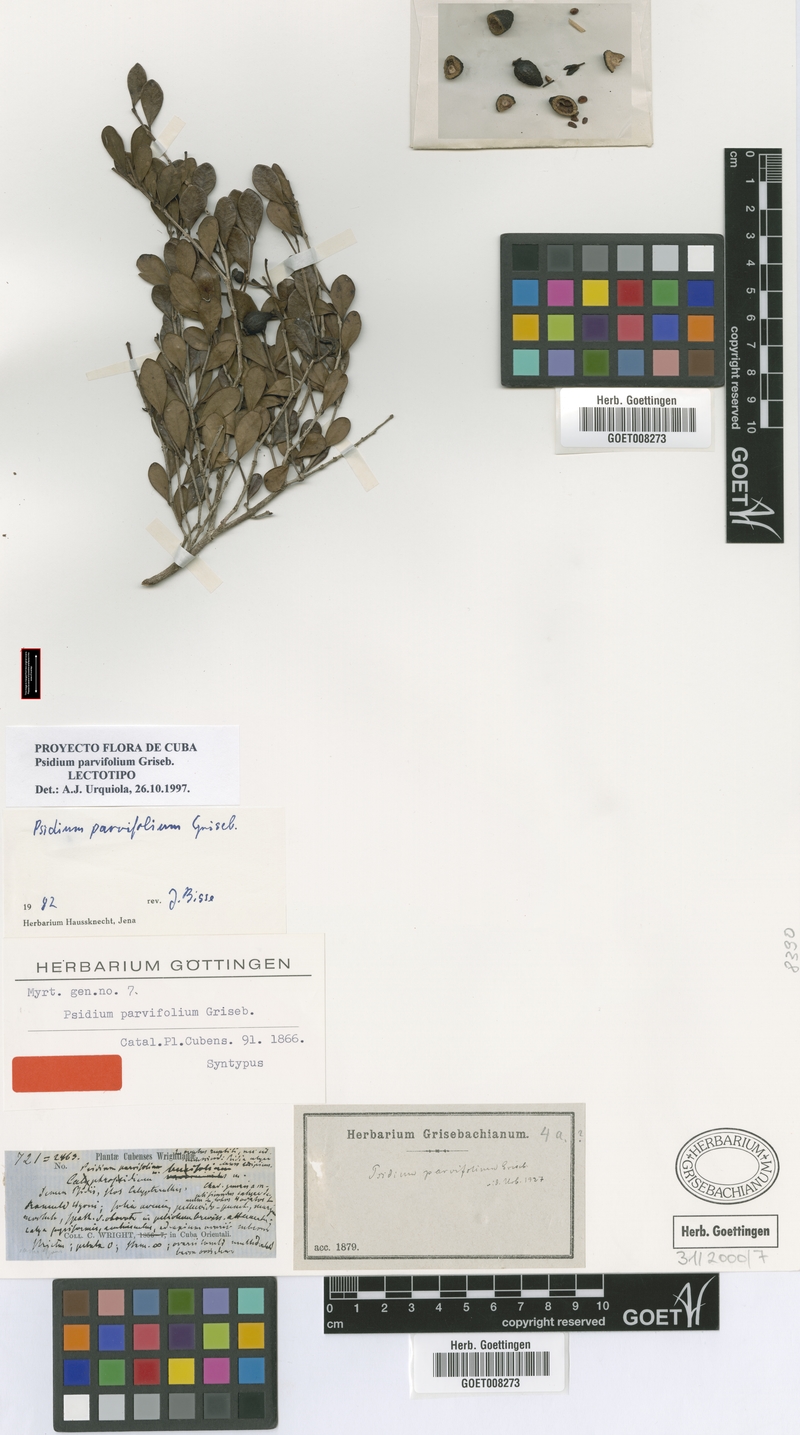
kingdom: Plantae
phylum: Tracheophyta
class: Magnoliopsida
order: Myrtales
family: Myrtaceae
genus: Psidium
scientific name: Psidium parvifolium
